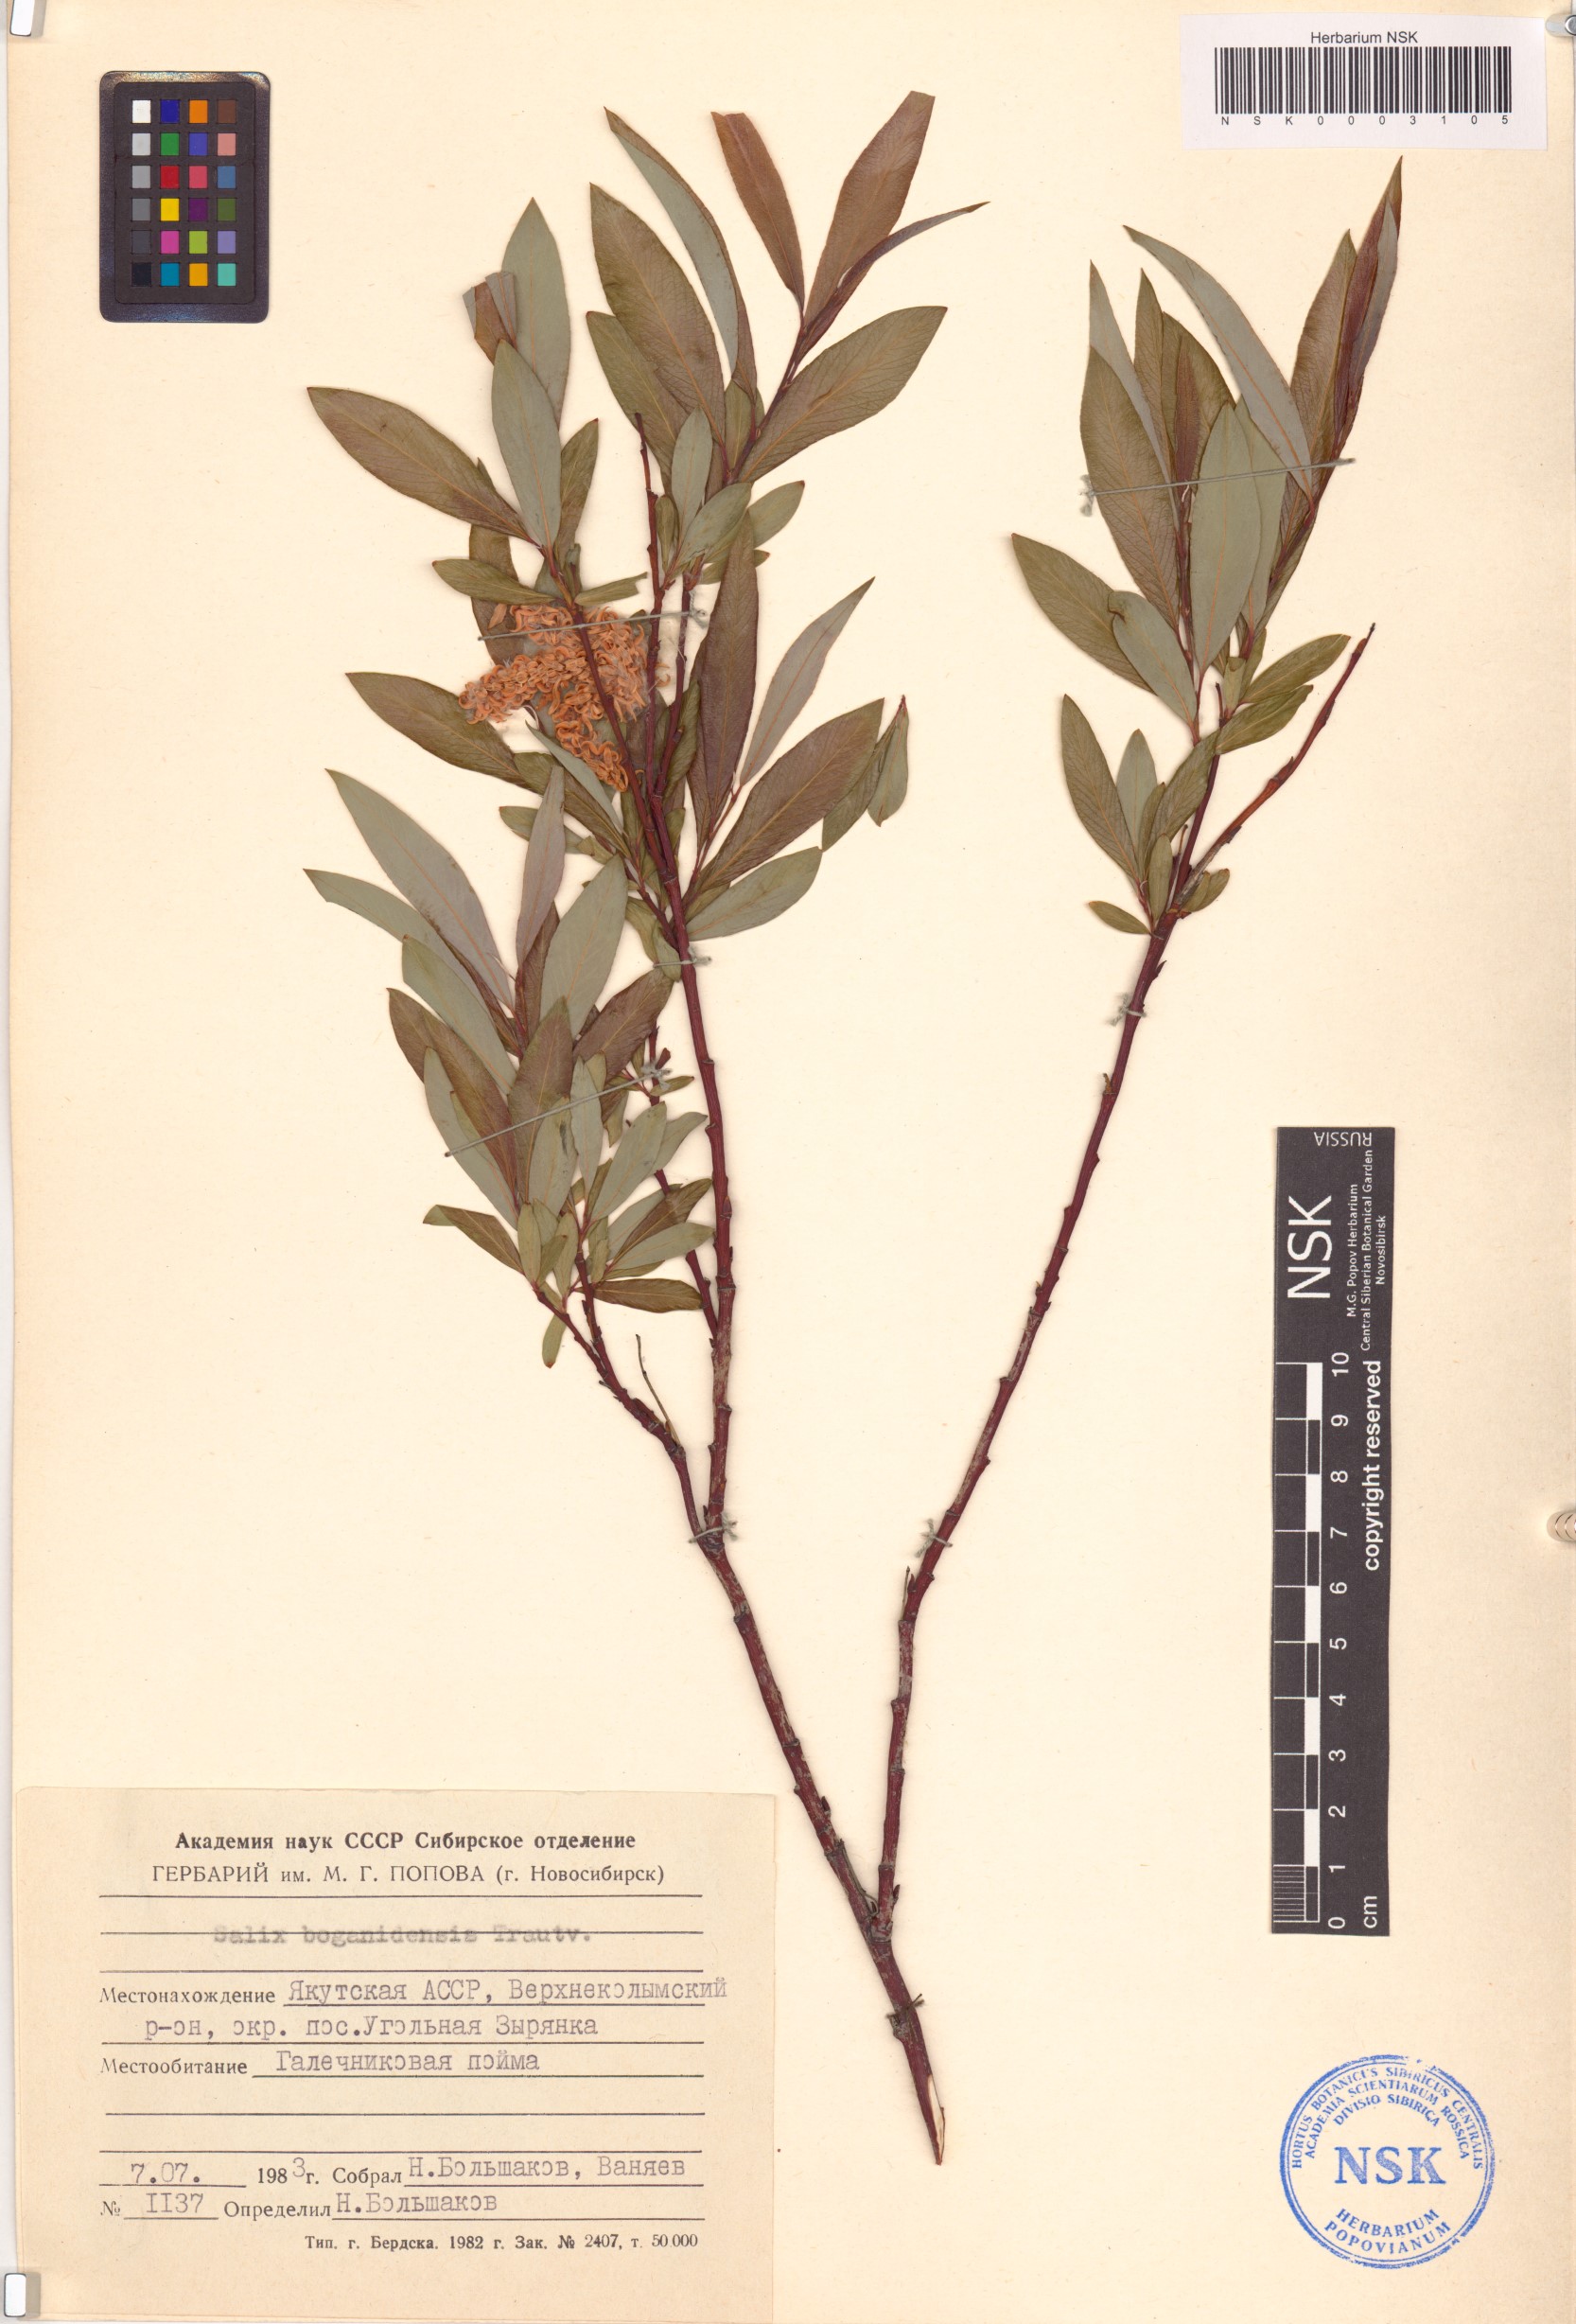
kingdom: Plantae
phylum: Tracheophyta
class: Magnoliopsida
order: Malpighiales
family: Salicaceae
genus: Salix
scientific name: Salix boganidensis
